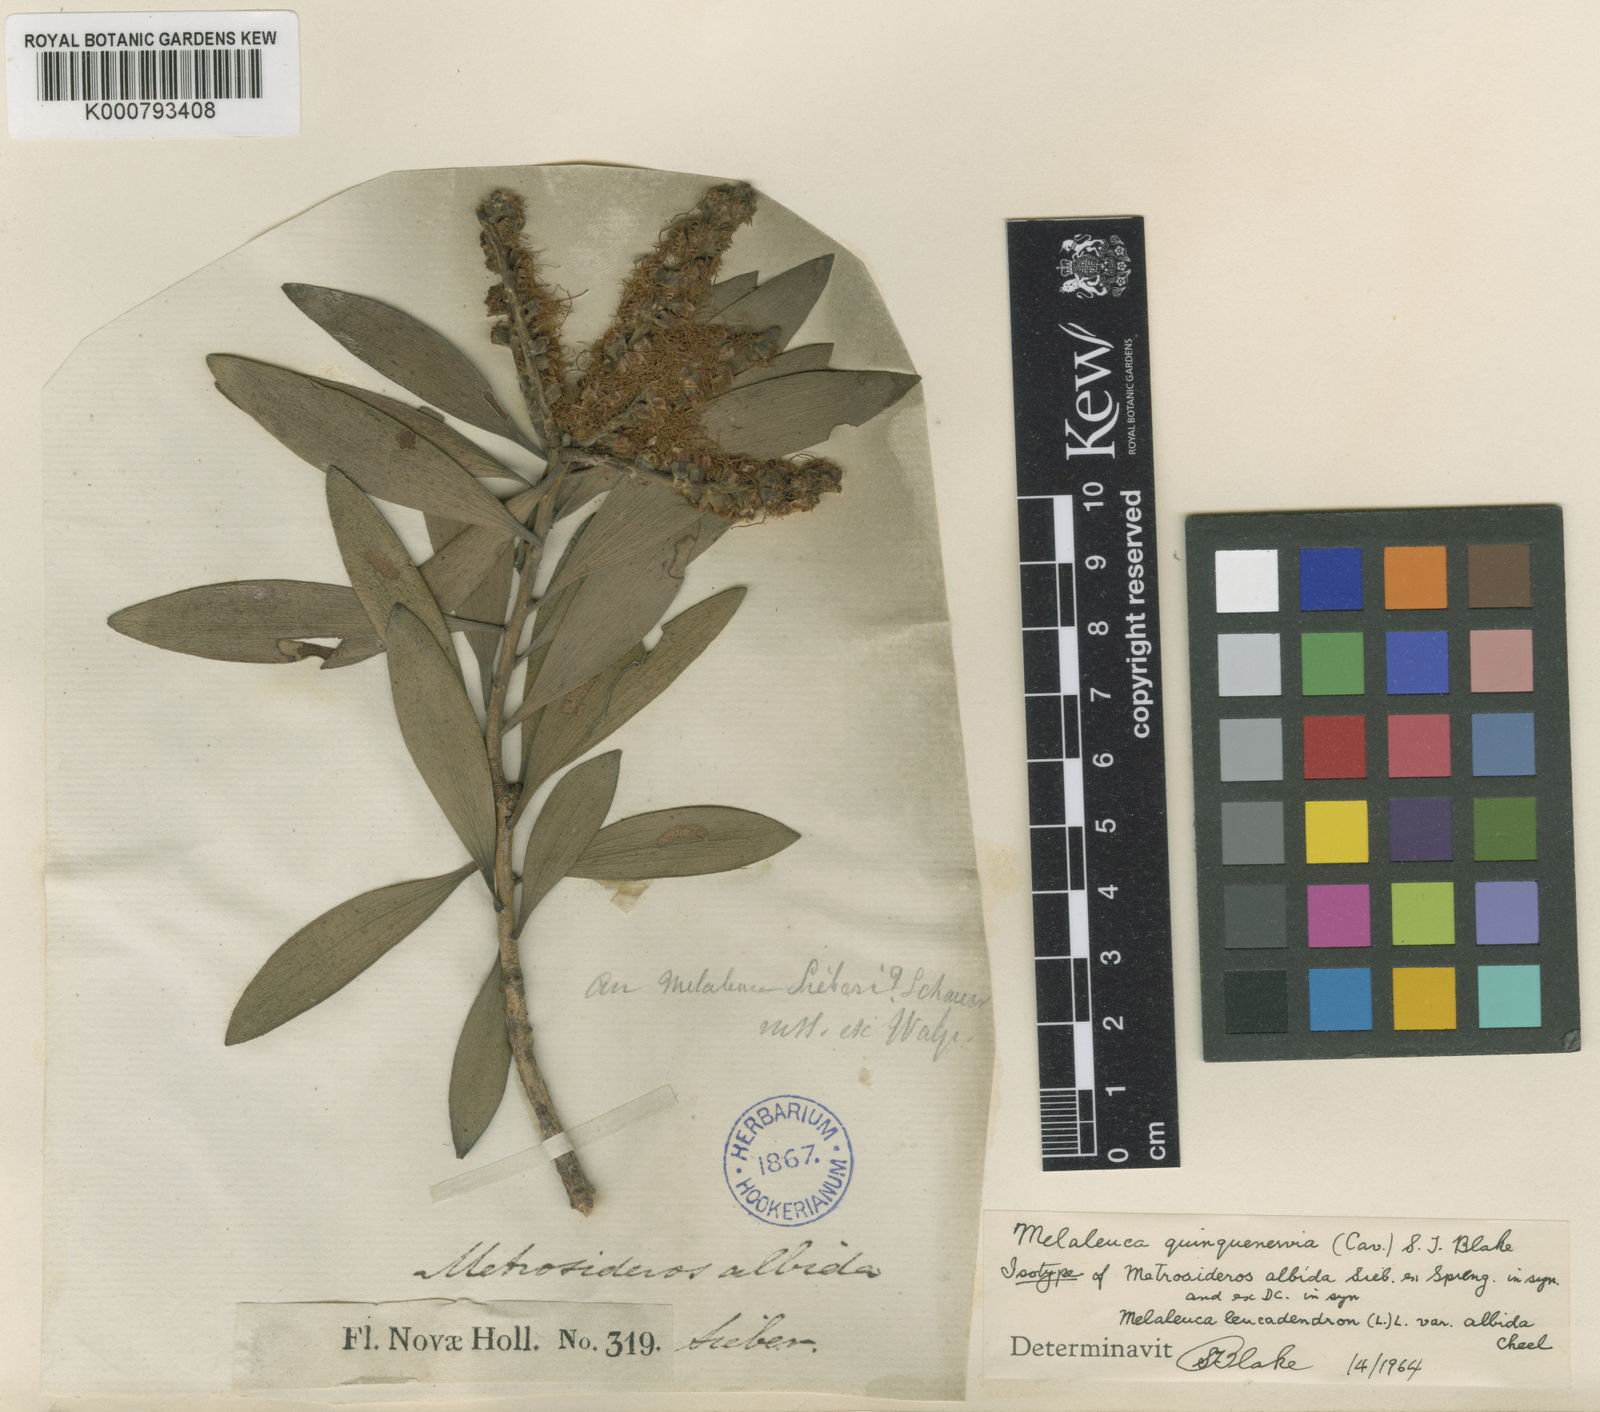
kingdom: Plantae
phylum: Tracheophyta
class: Magnoliopsida
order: Myrtales
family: Myrtaceae
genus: Melaleuca
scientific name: Melaleuca quinquenervia
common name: Punktree
